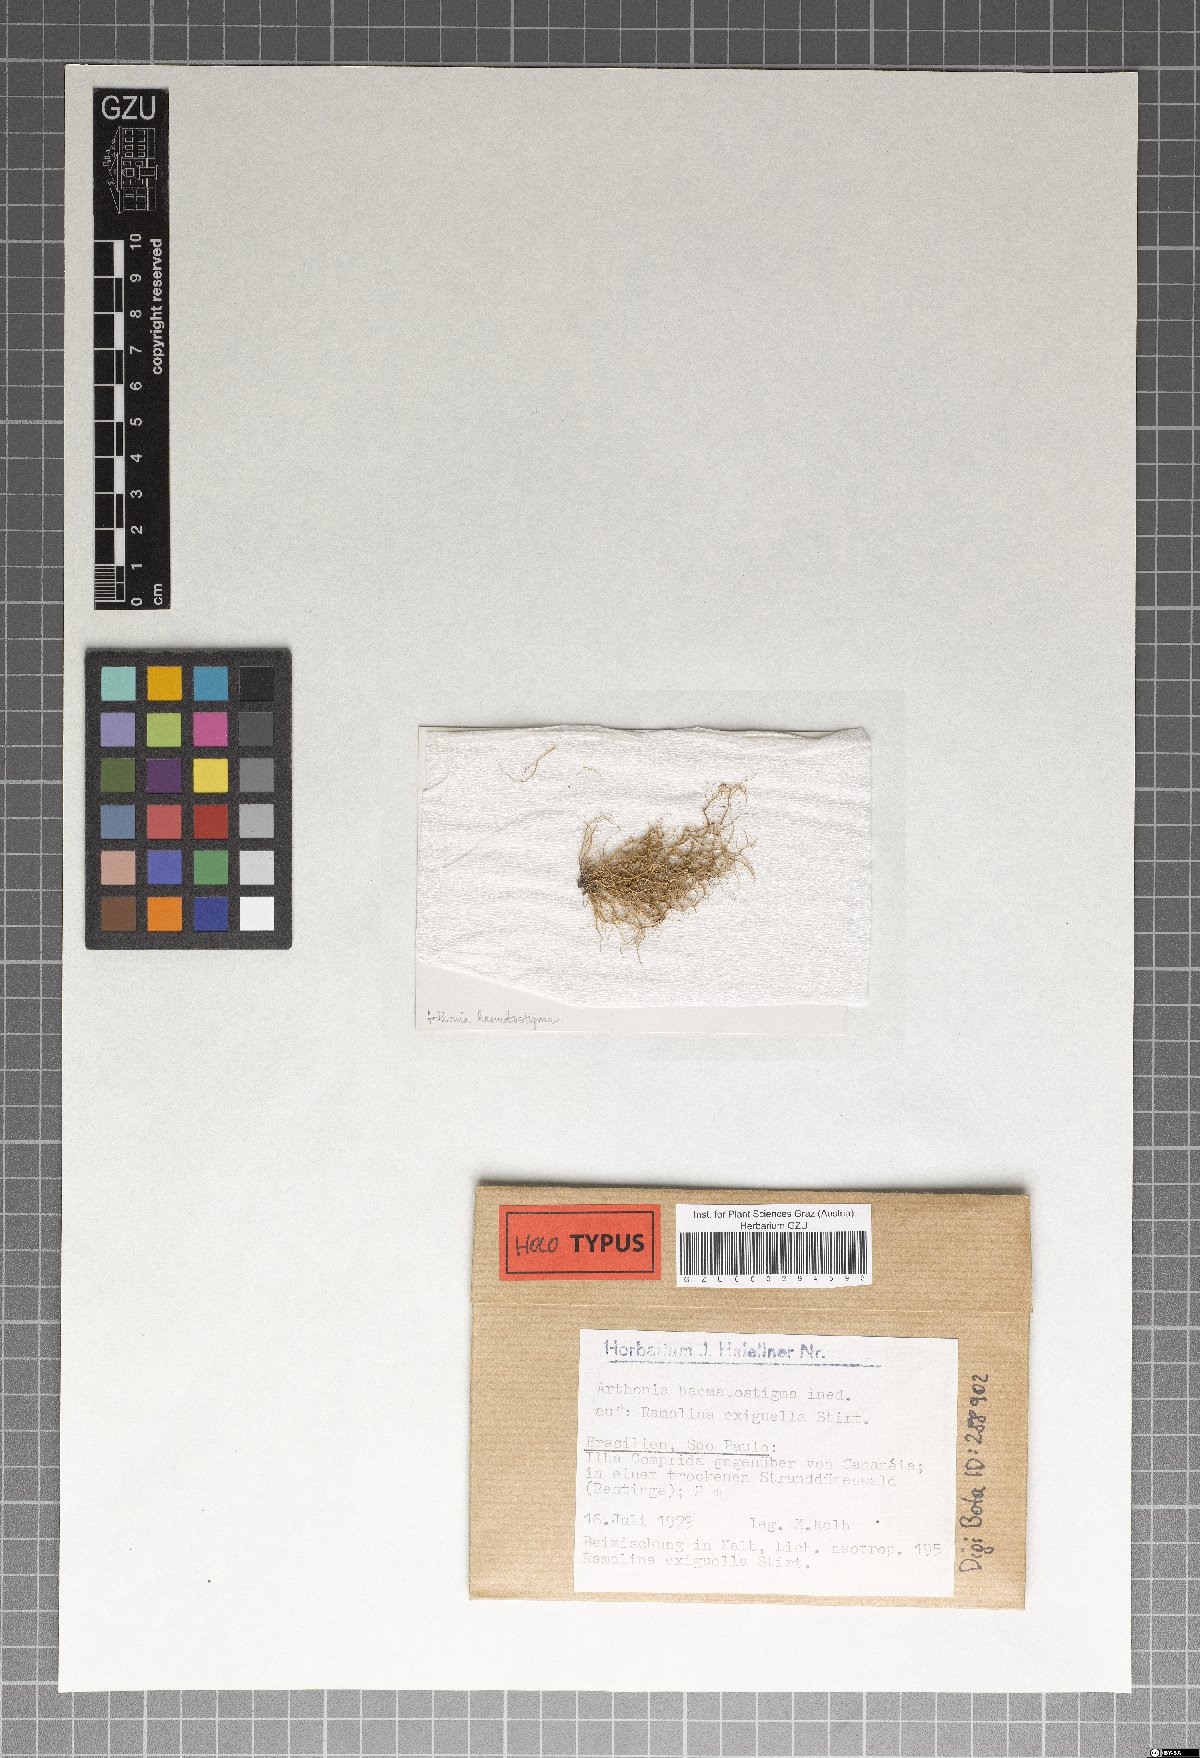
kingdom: Fungi
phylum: Ascomycota
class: Arthoniomycetes
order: Arthoniales
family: Arthoniaceae
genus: Arthonia
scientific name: Arthonia haematostigma
